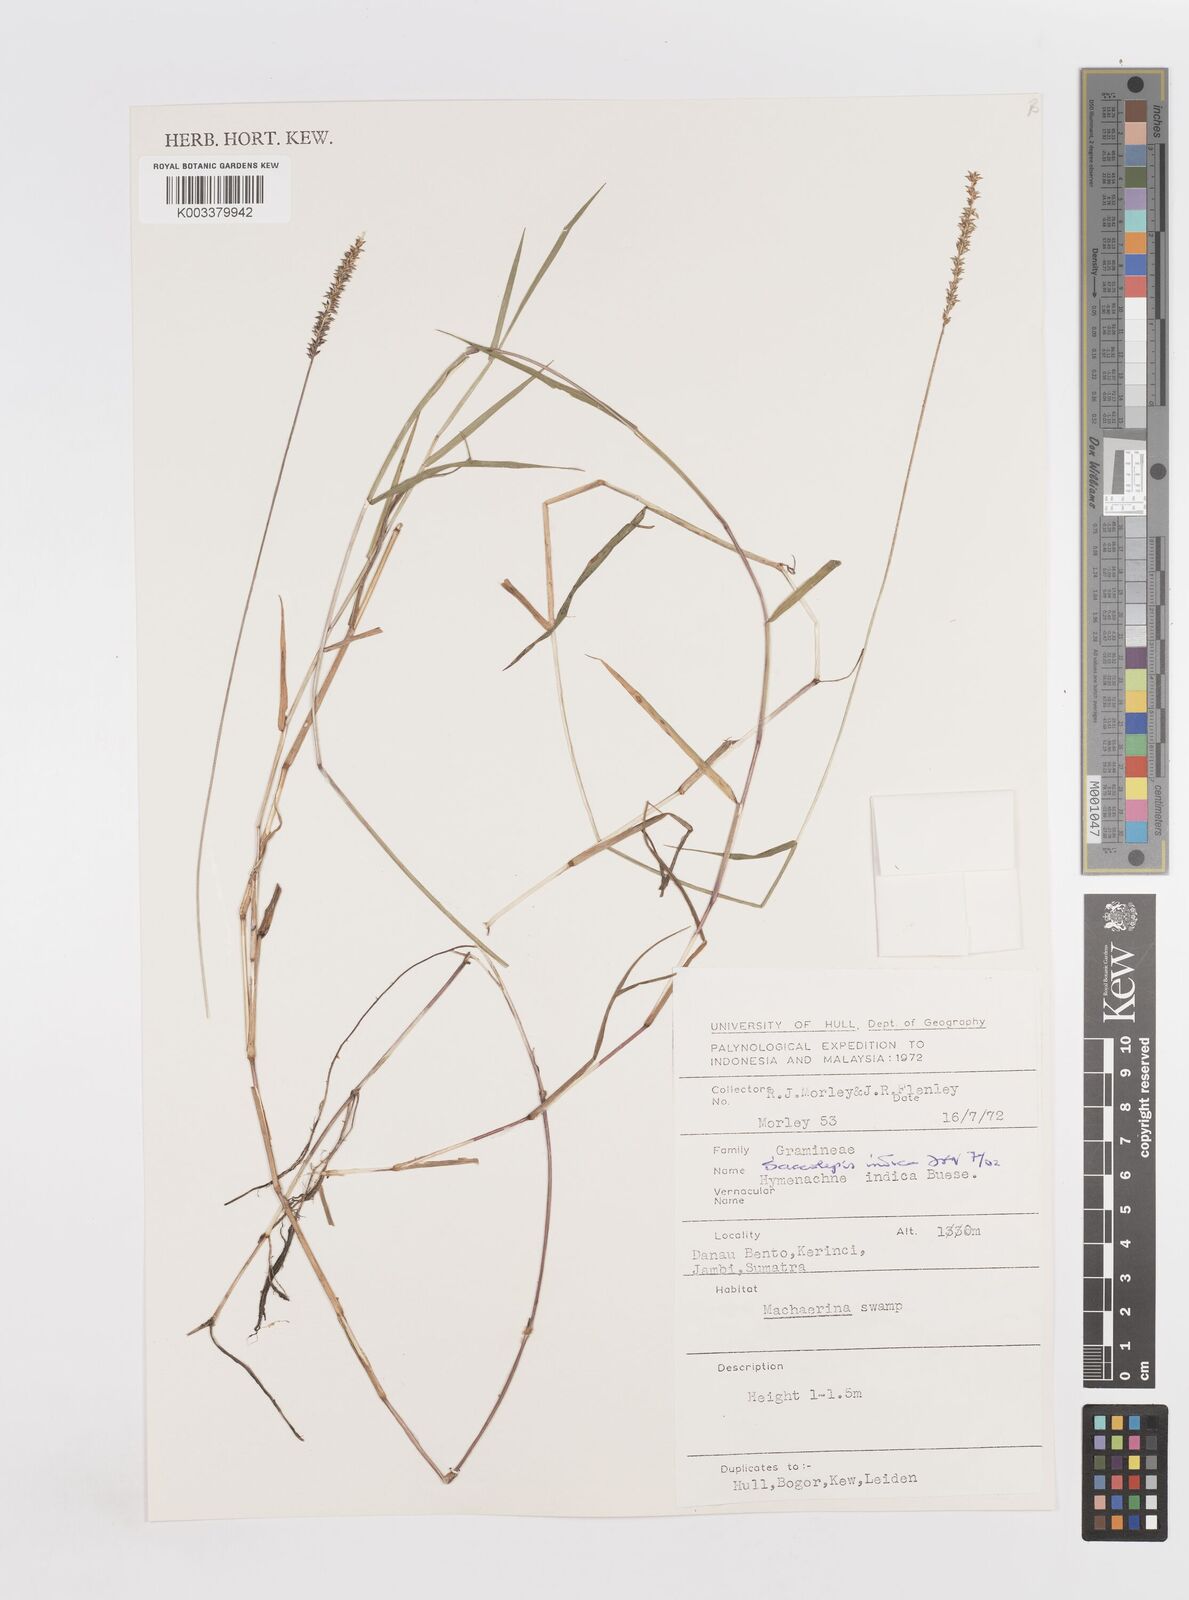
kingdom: Plantae
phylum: Tracheophyta
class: Liliopsida
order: Poales
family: Poaceae
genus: Sacciolepis
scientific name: Sacciolepis indica
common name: Glenwoodgrass
